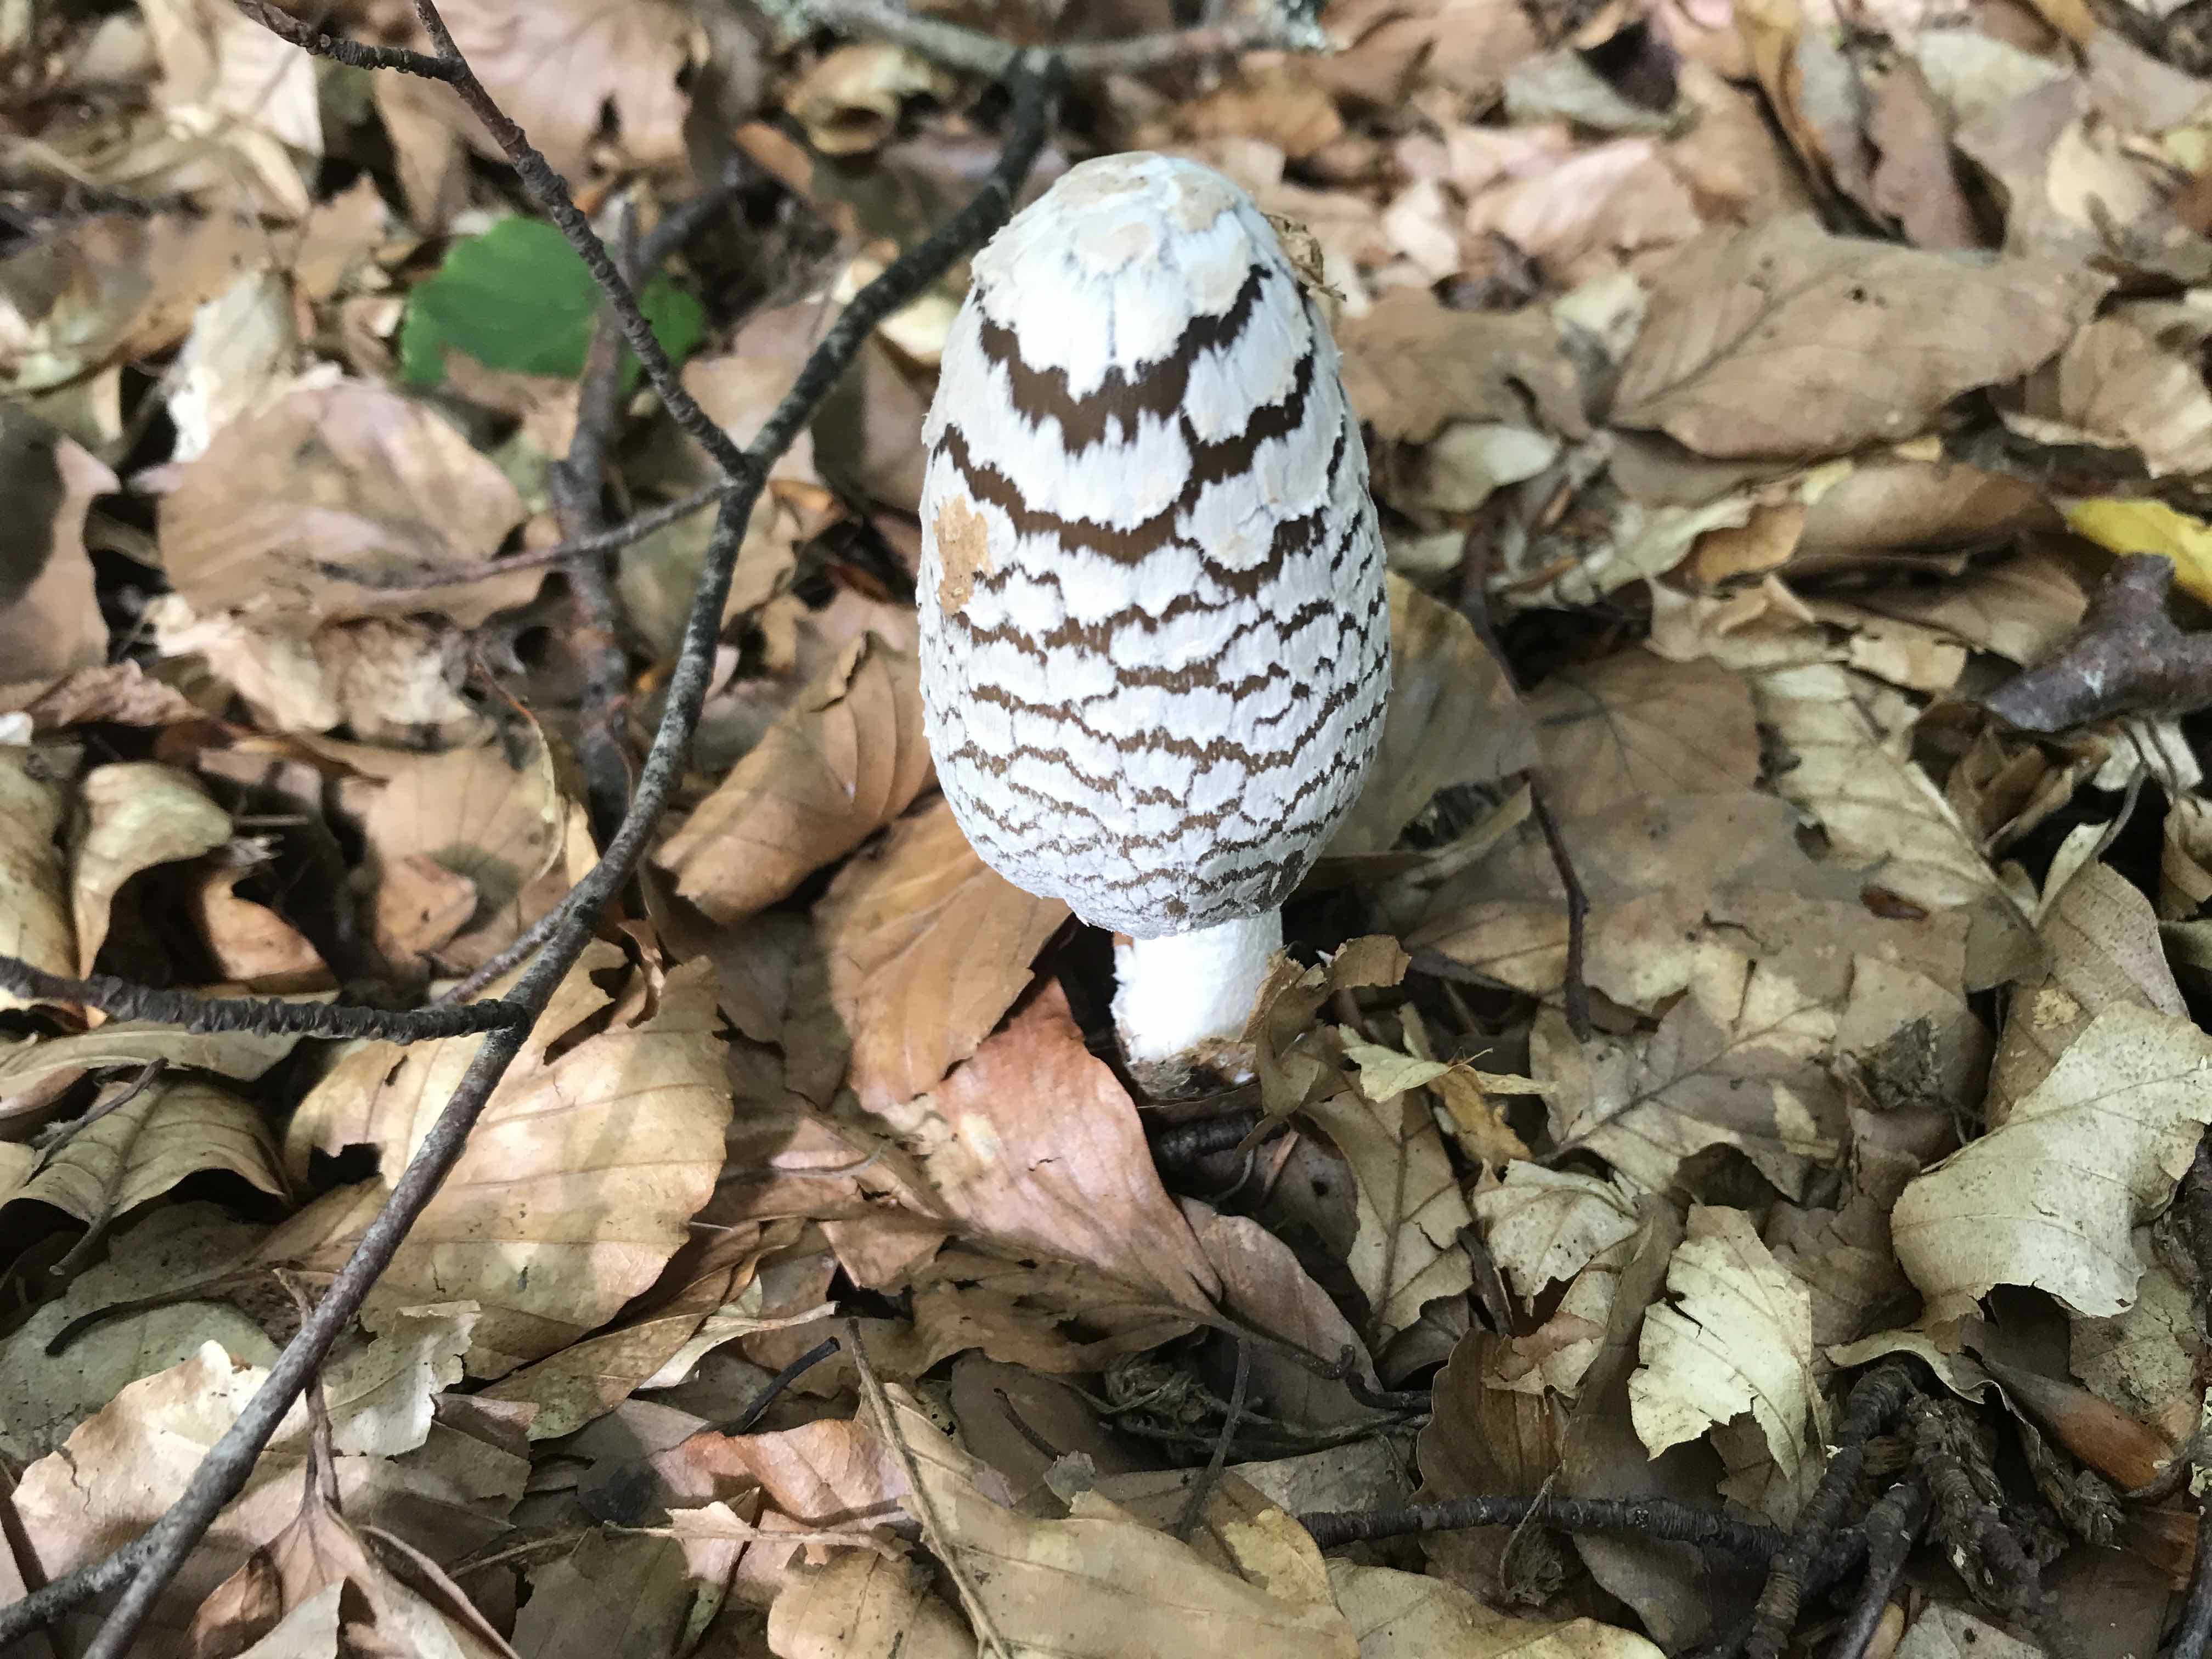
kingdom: Fungi
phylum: Basidiomycota
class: Agaricomycetes
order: Agaricales
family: Psathyrellaceae
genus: Coprinopsis
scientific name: Coprinopsis picacea
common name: skade-blækhat
